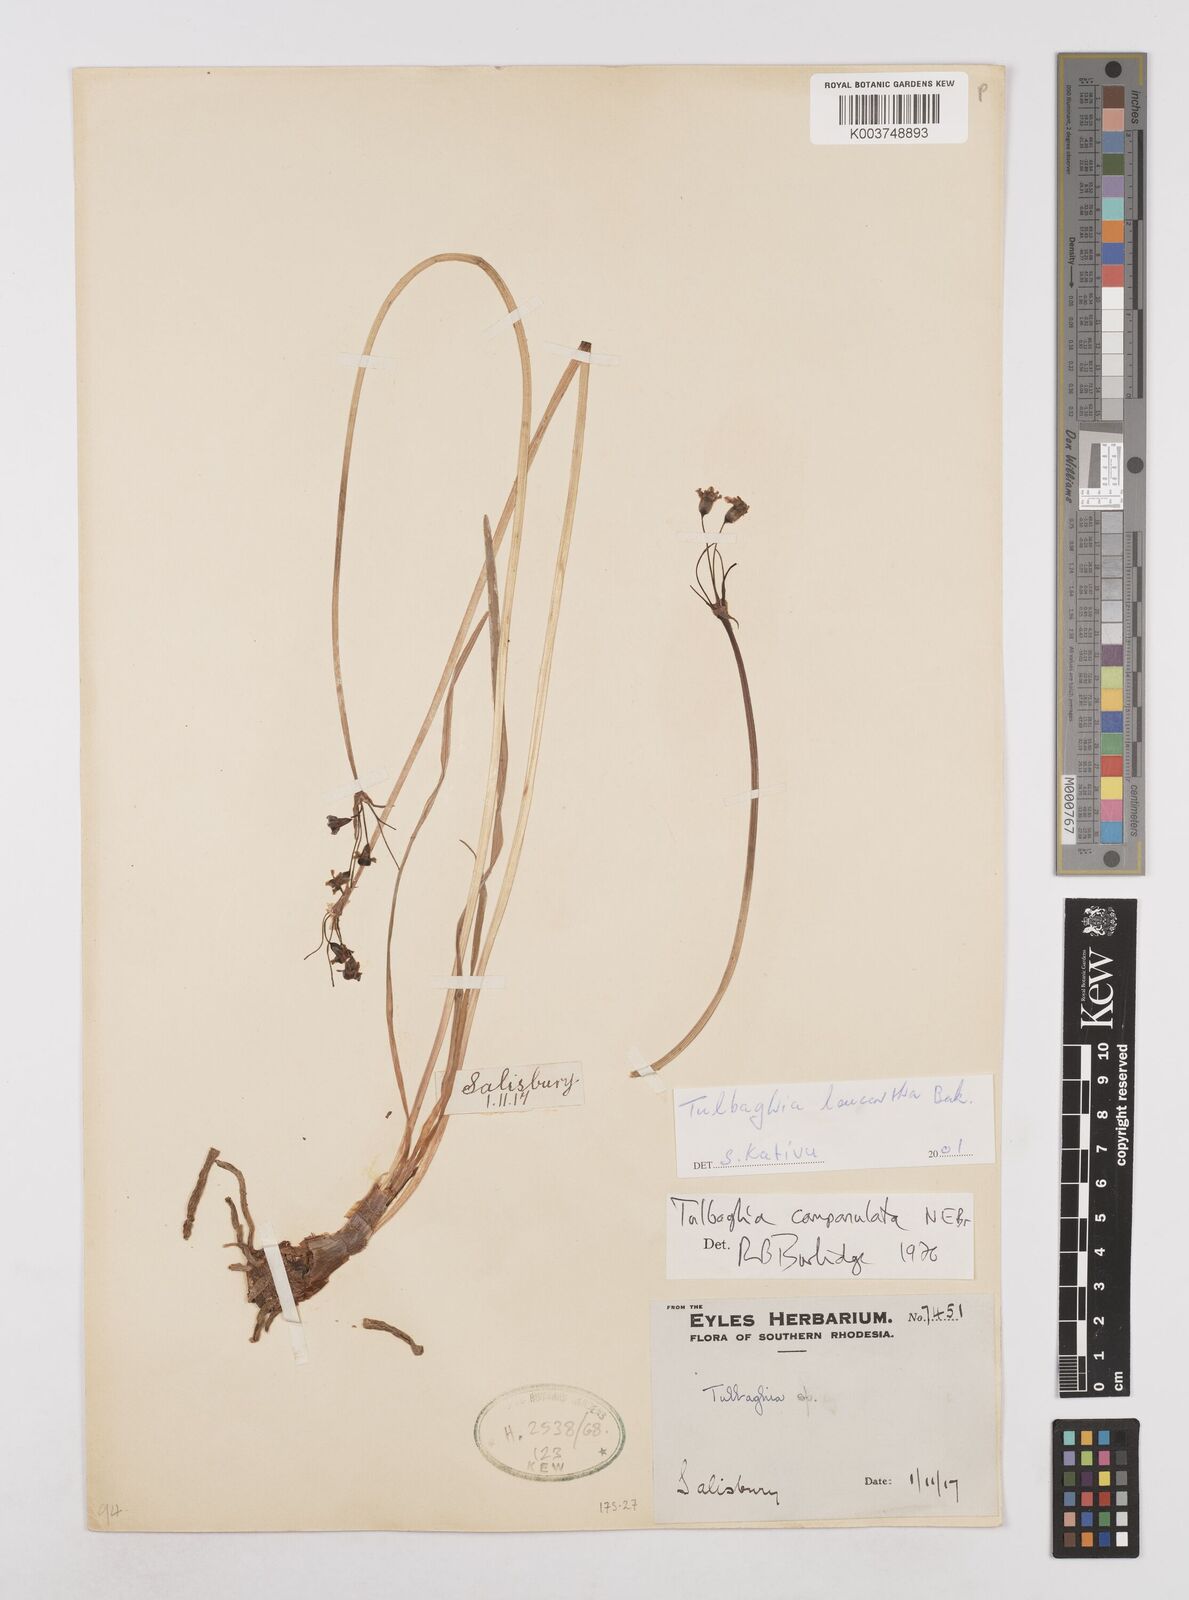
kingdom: Plantae
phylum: Tracheophyta
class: Liliopsida
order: Asparagales
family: Amaryllidaceae
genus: Tulbaghia
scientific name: Tulbaghia leucantha
